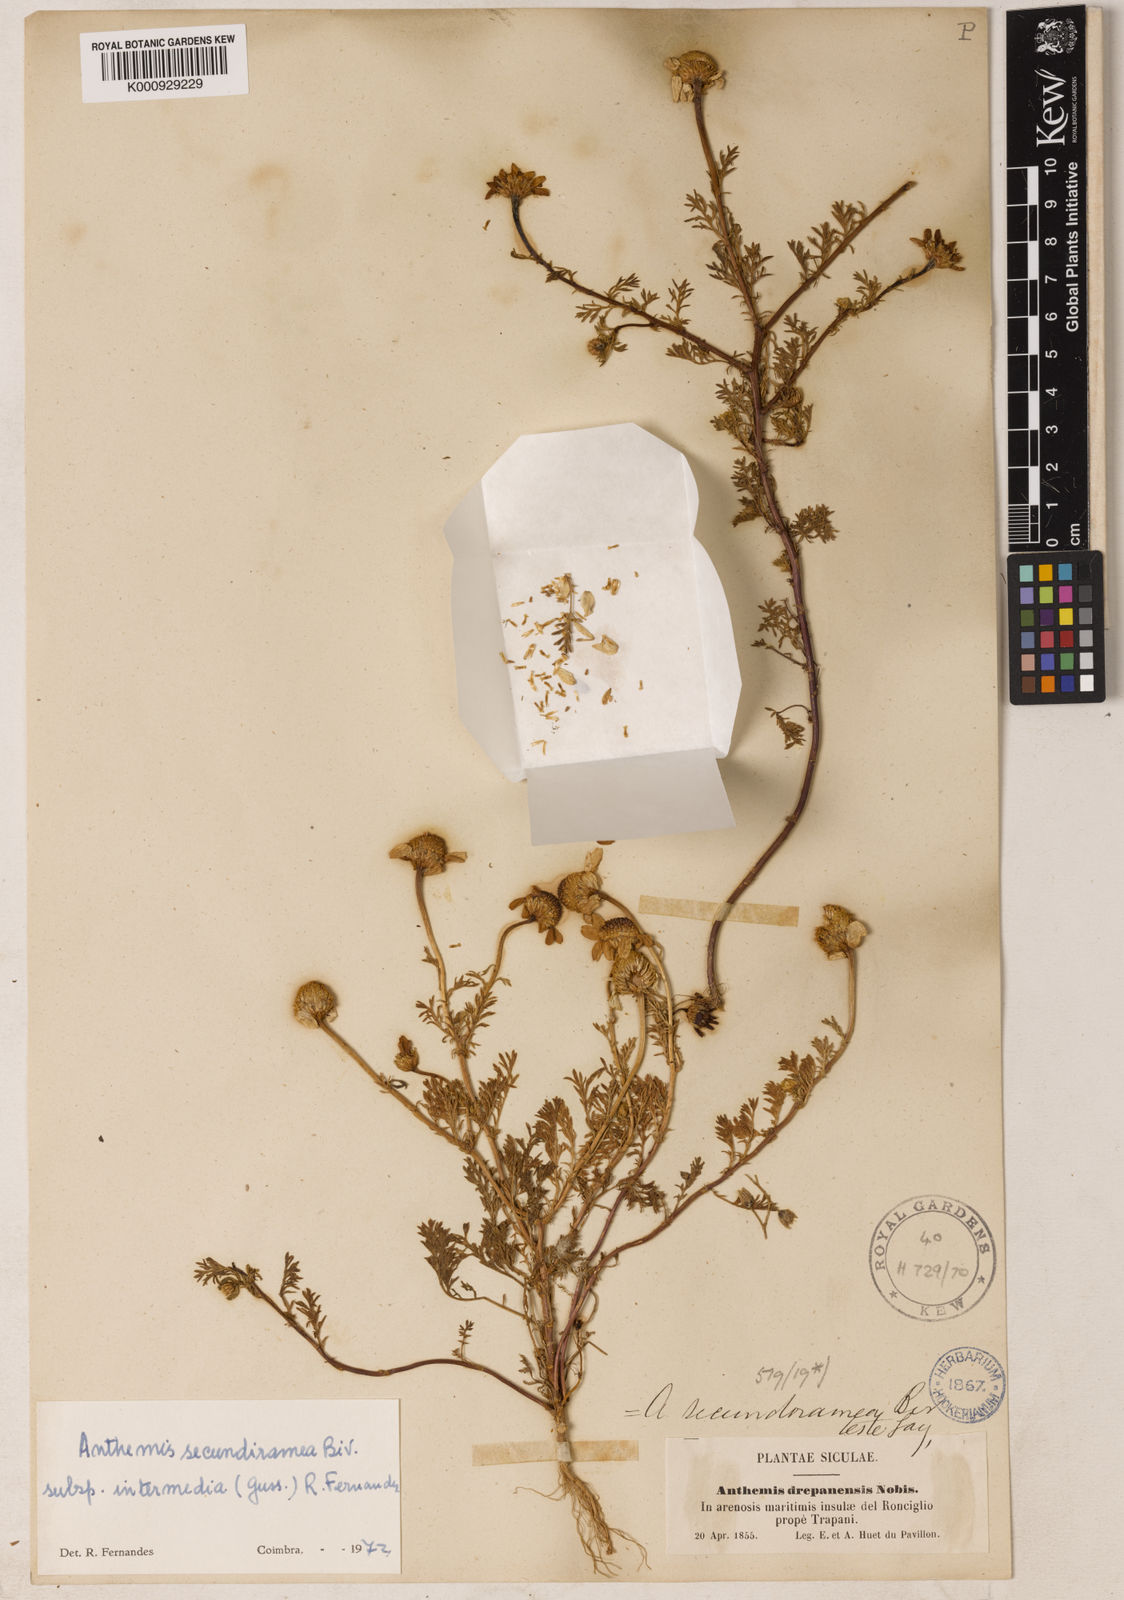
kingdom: Plantae
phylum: Tracheophyta
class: Magnoliopsida
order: Asterales
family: Asteraceae
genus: Anthemis
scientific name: Anthemis maritima
